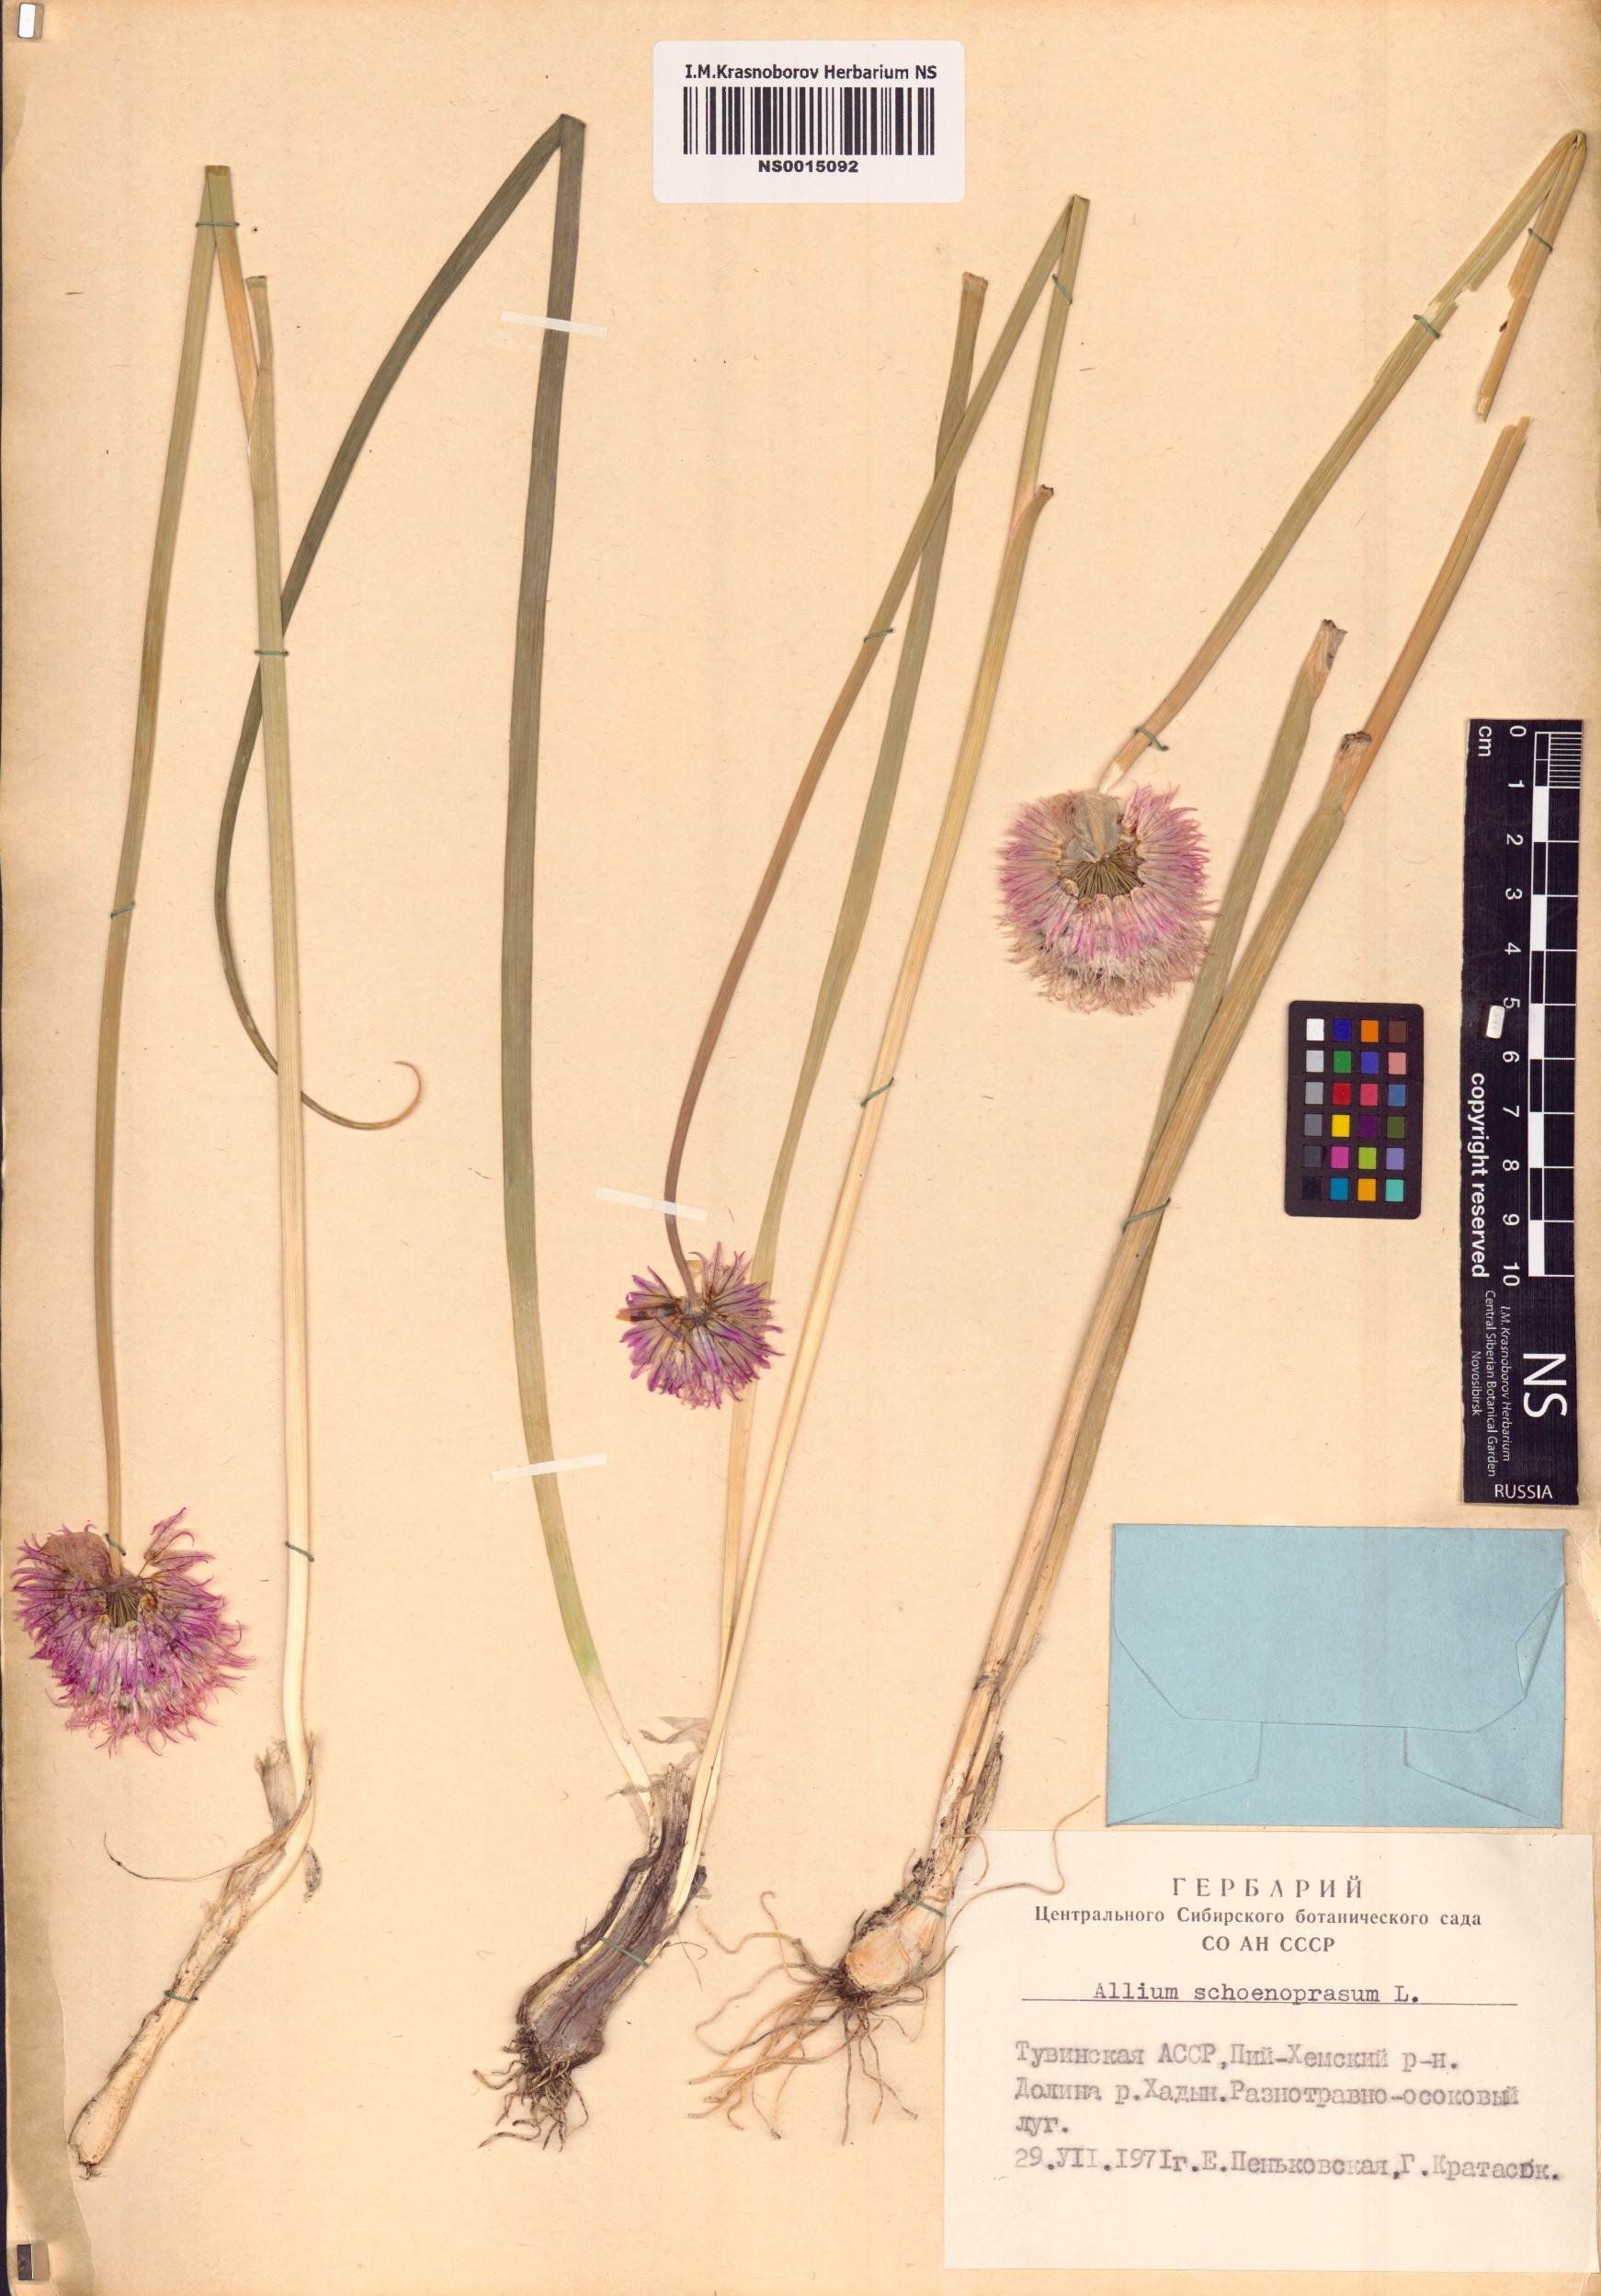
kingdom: Plantae
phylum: Tracheophyta
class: Liliopsida
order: Asparagales
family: Amaryllidaceae
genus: Allium
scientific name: Allium schoenoprasum
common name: Chives
